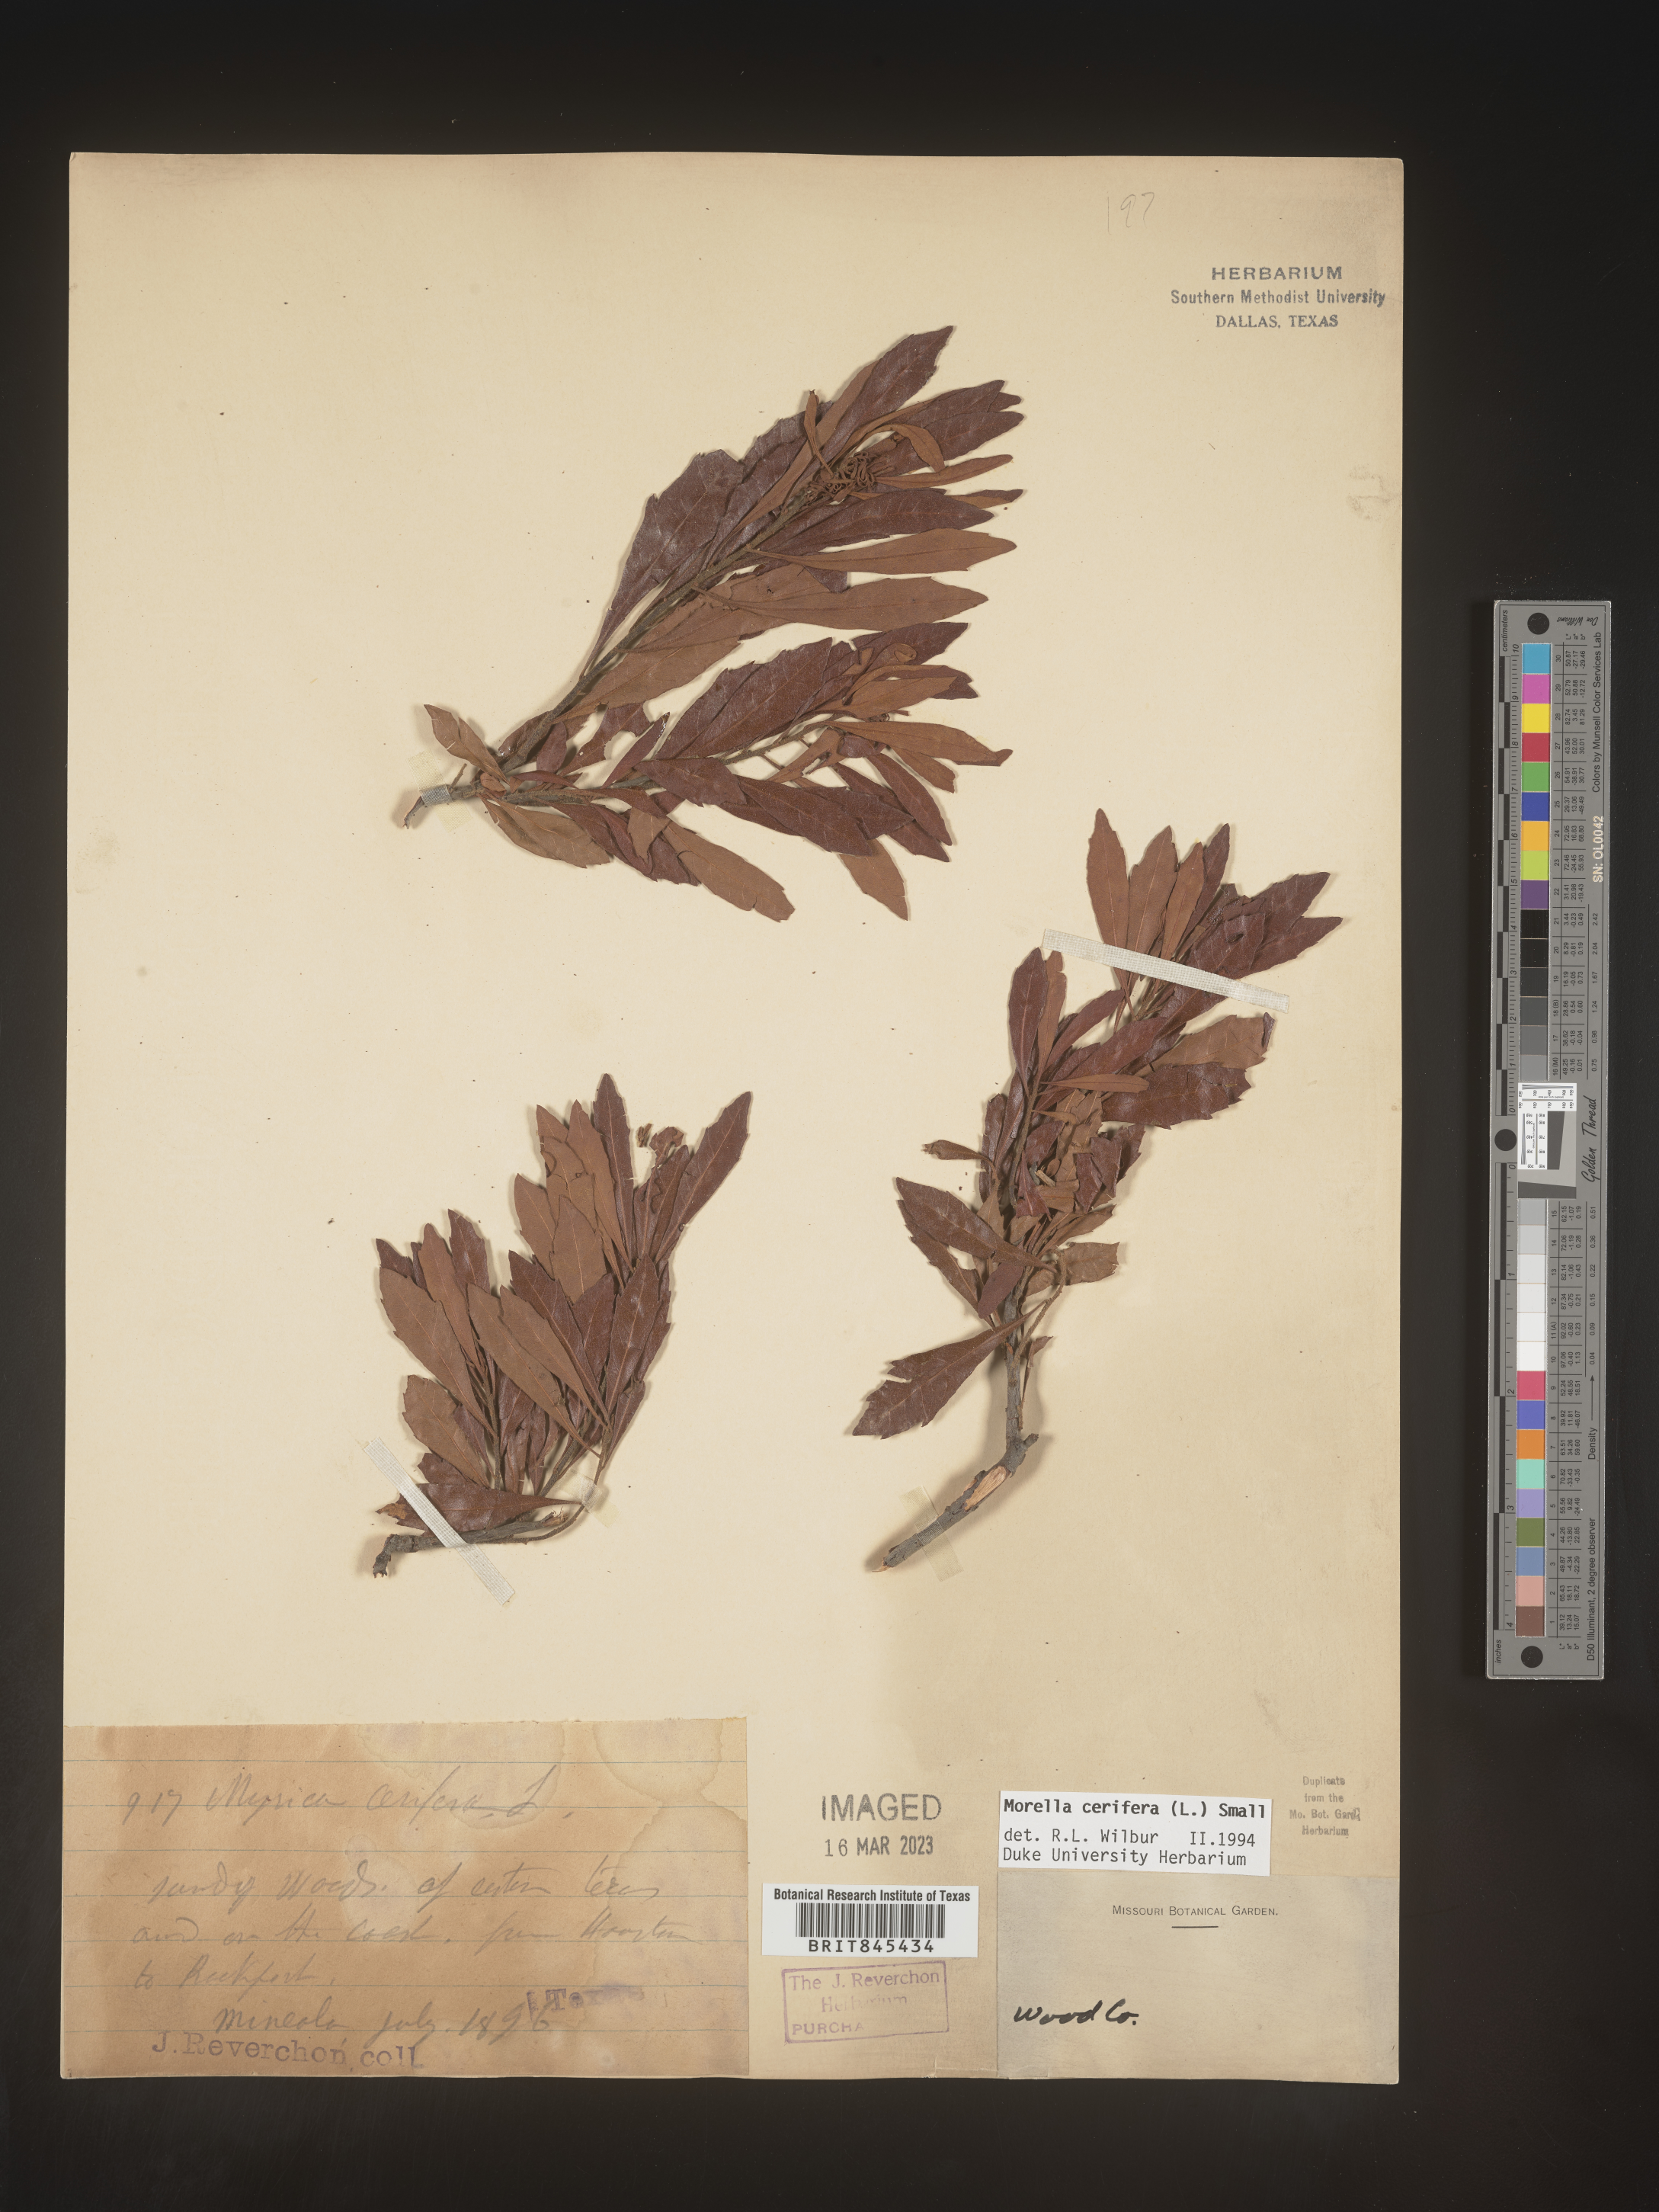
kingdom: Plantae
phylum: Tracheophyta
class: Magnoliopsida
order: Fagales
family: Myricaceae
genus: Morella
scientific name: Morella cerifera
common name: Wax myrtle
